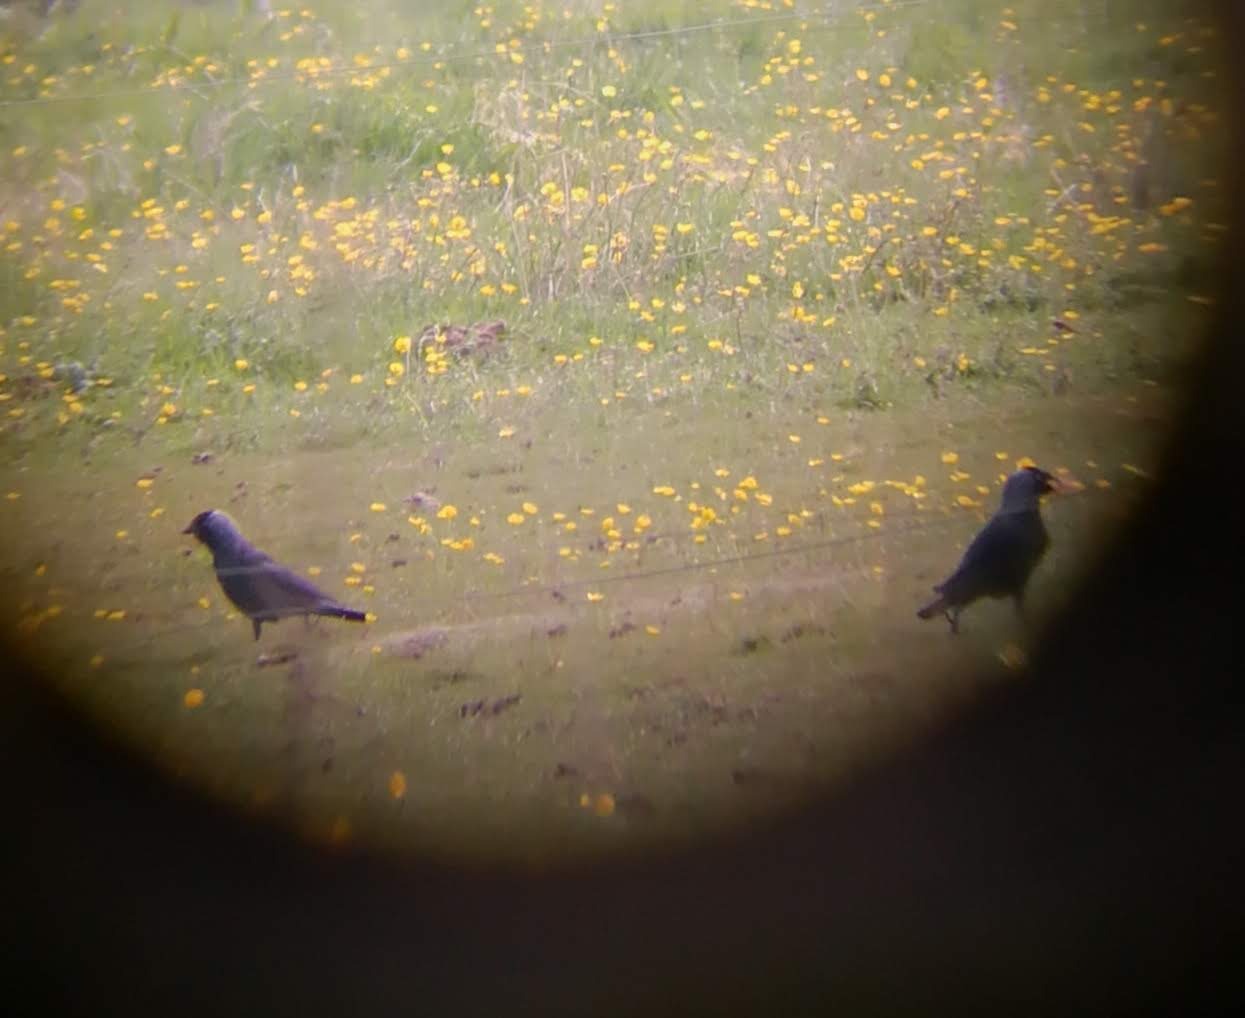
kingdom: Animalia
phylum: Chordata
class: Aves
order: Passeriformes
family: Corvidae
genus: Coloeus
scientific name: Coloeus monedula
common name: Allike
